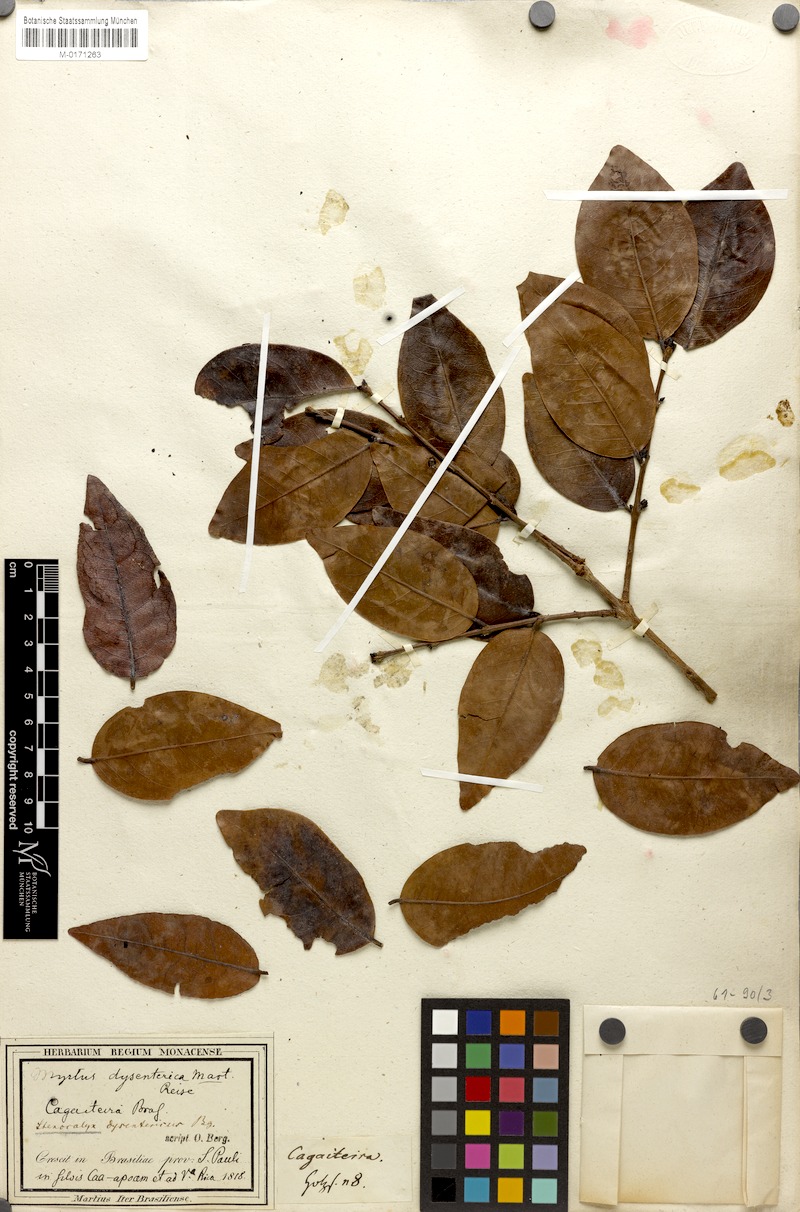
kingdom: Plantae
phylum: Tracheophyta
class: Magnoliopsida
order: Myrtales
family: Myrtaceae
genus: Eugenia
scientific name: Eugenia dysenterica
